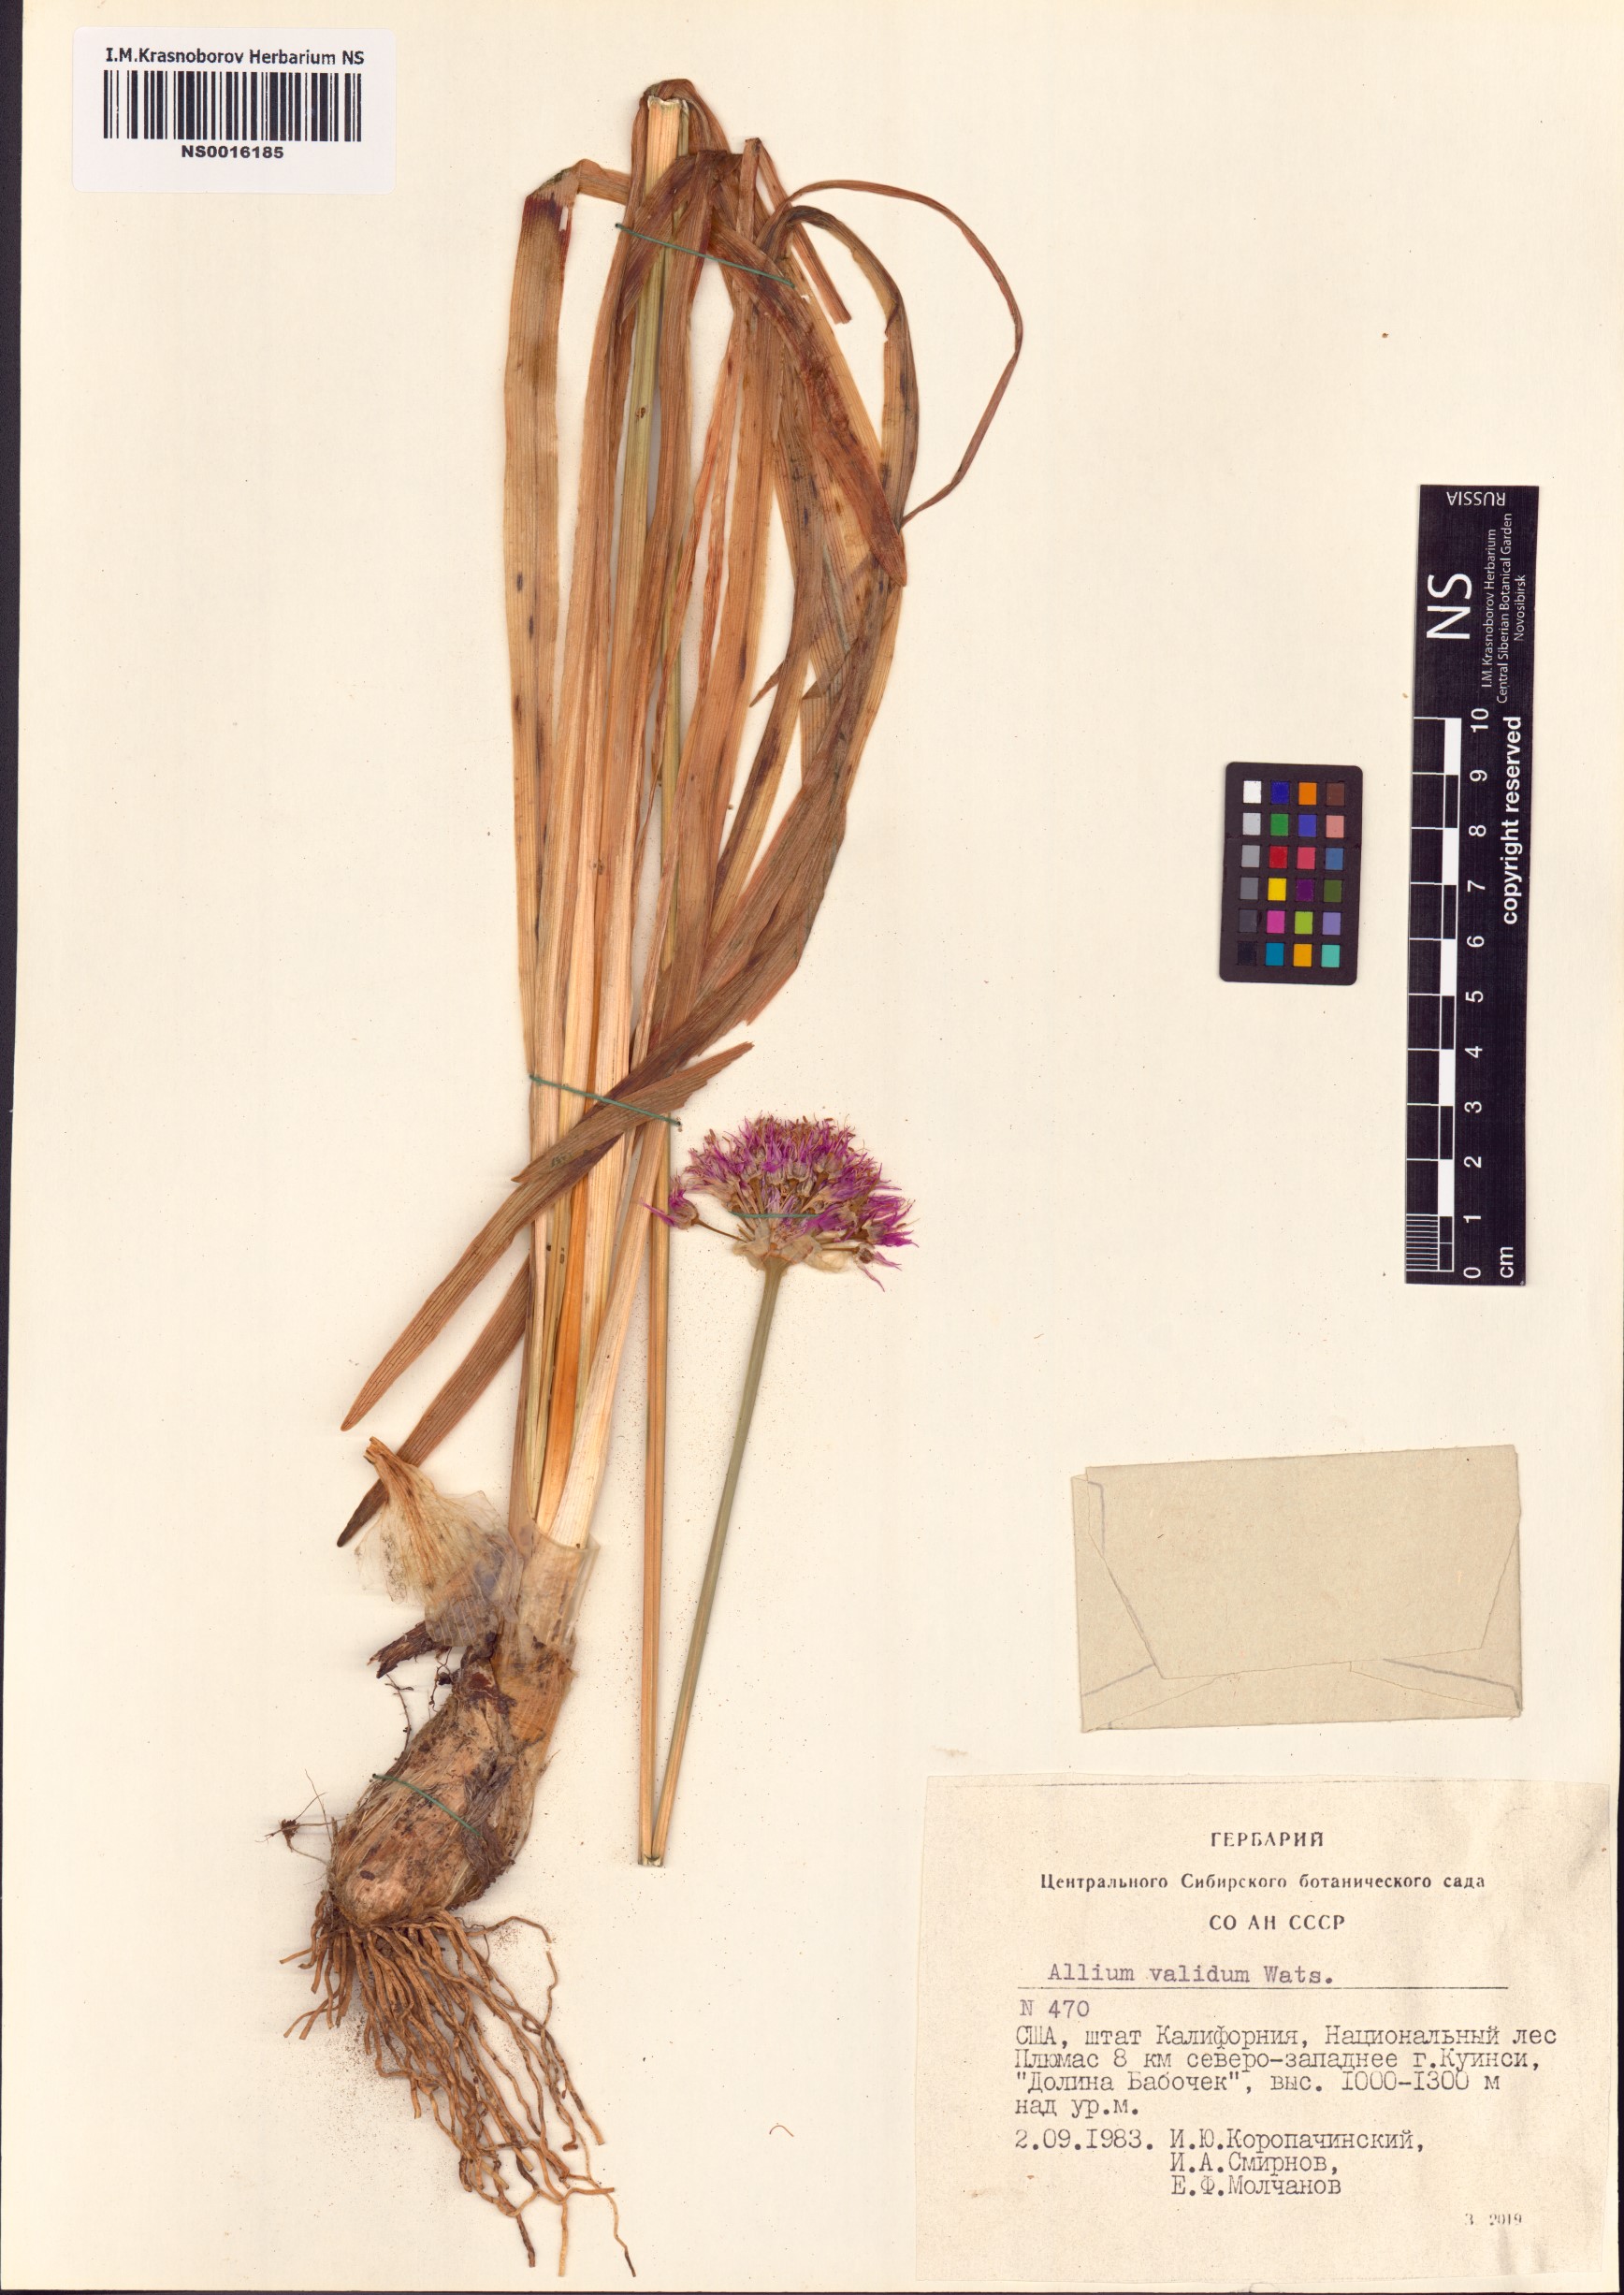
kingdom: Plantae
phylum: Tracheophyta
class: Liliopsida
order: Asparagales
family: Amaryllidaceae
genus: Allium
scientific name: Allium validum
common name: Pacific mountain onion
